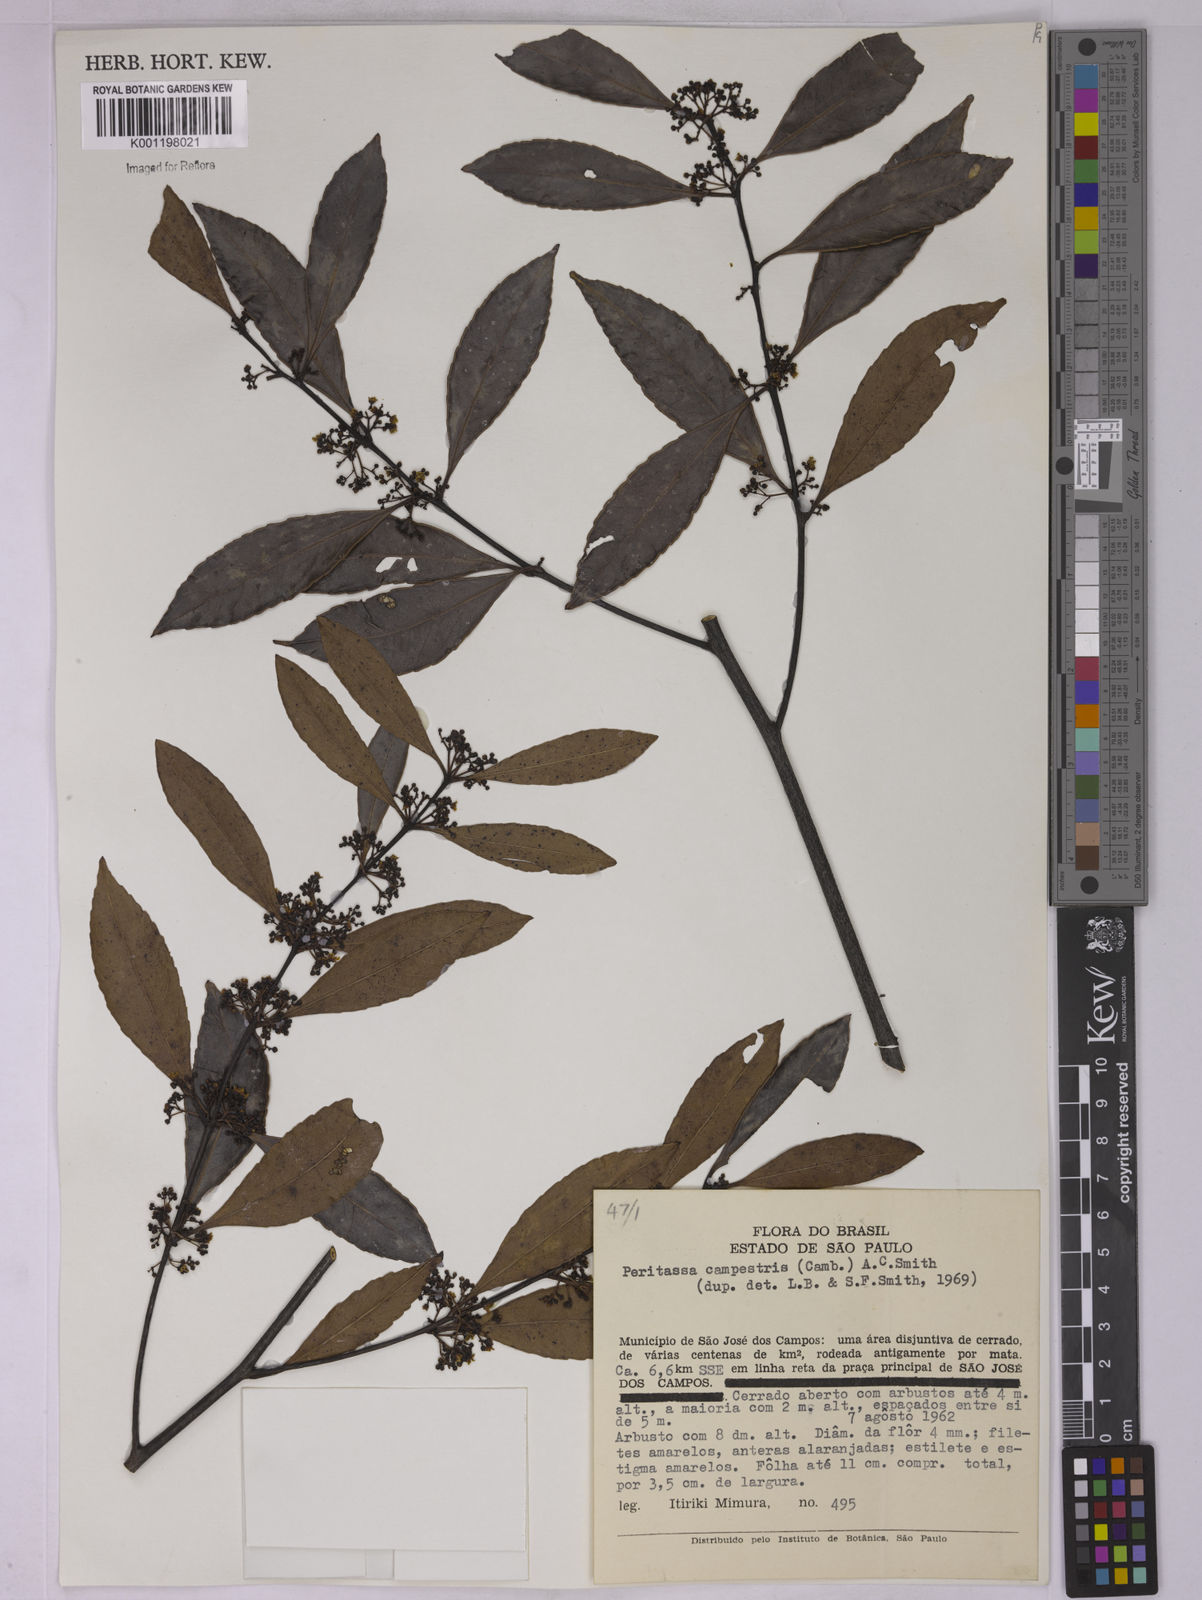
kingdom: Plantae
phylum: Tracheophyta
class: Magnoliopsida
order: Celastrales
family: Celastraceae
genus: Peritassa
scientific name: Peritassa campestris
